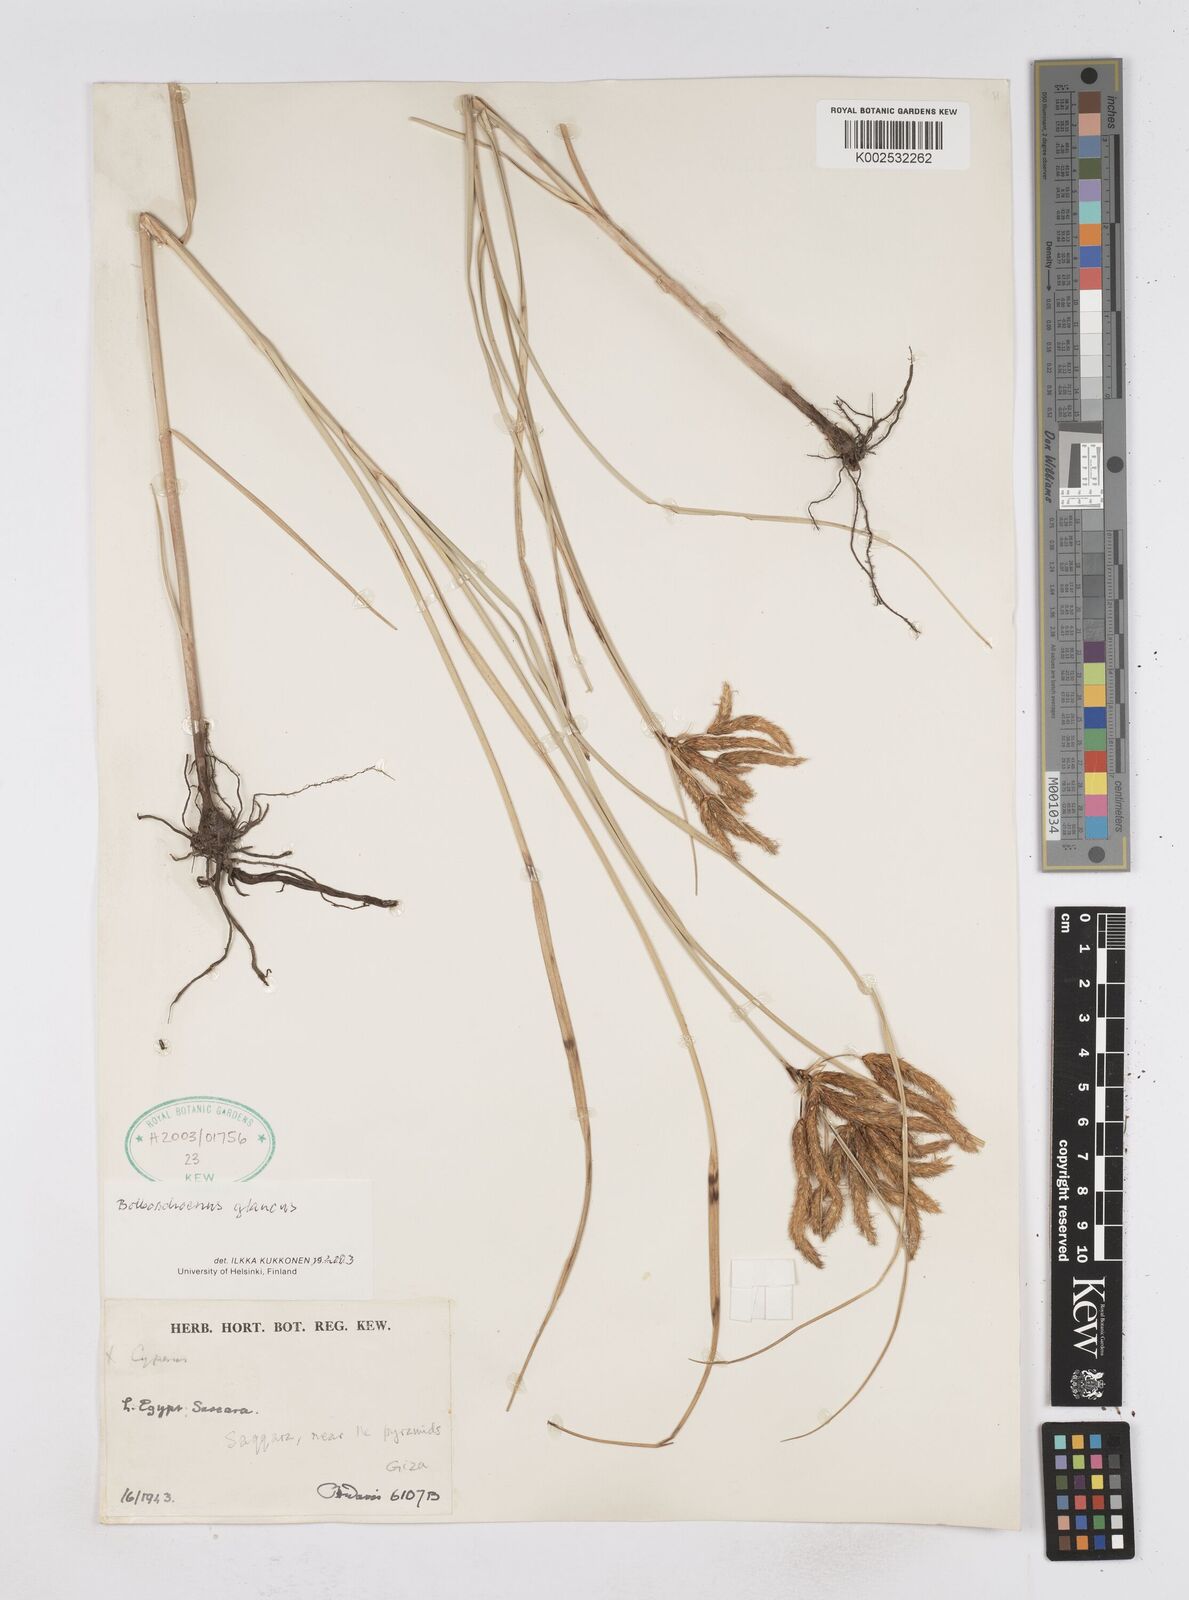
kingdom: Plantae
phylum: Tracheophyta
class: Liliopsida
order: Poales
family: Cyperaceae
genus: Bolboschoenus
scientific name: Bolboschoenus maritimus
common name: Sea club-rush
